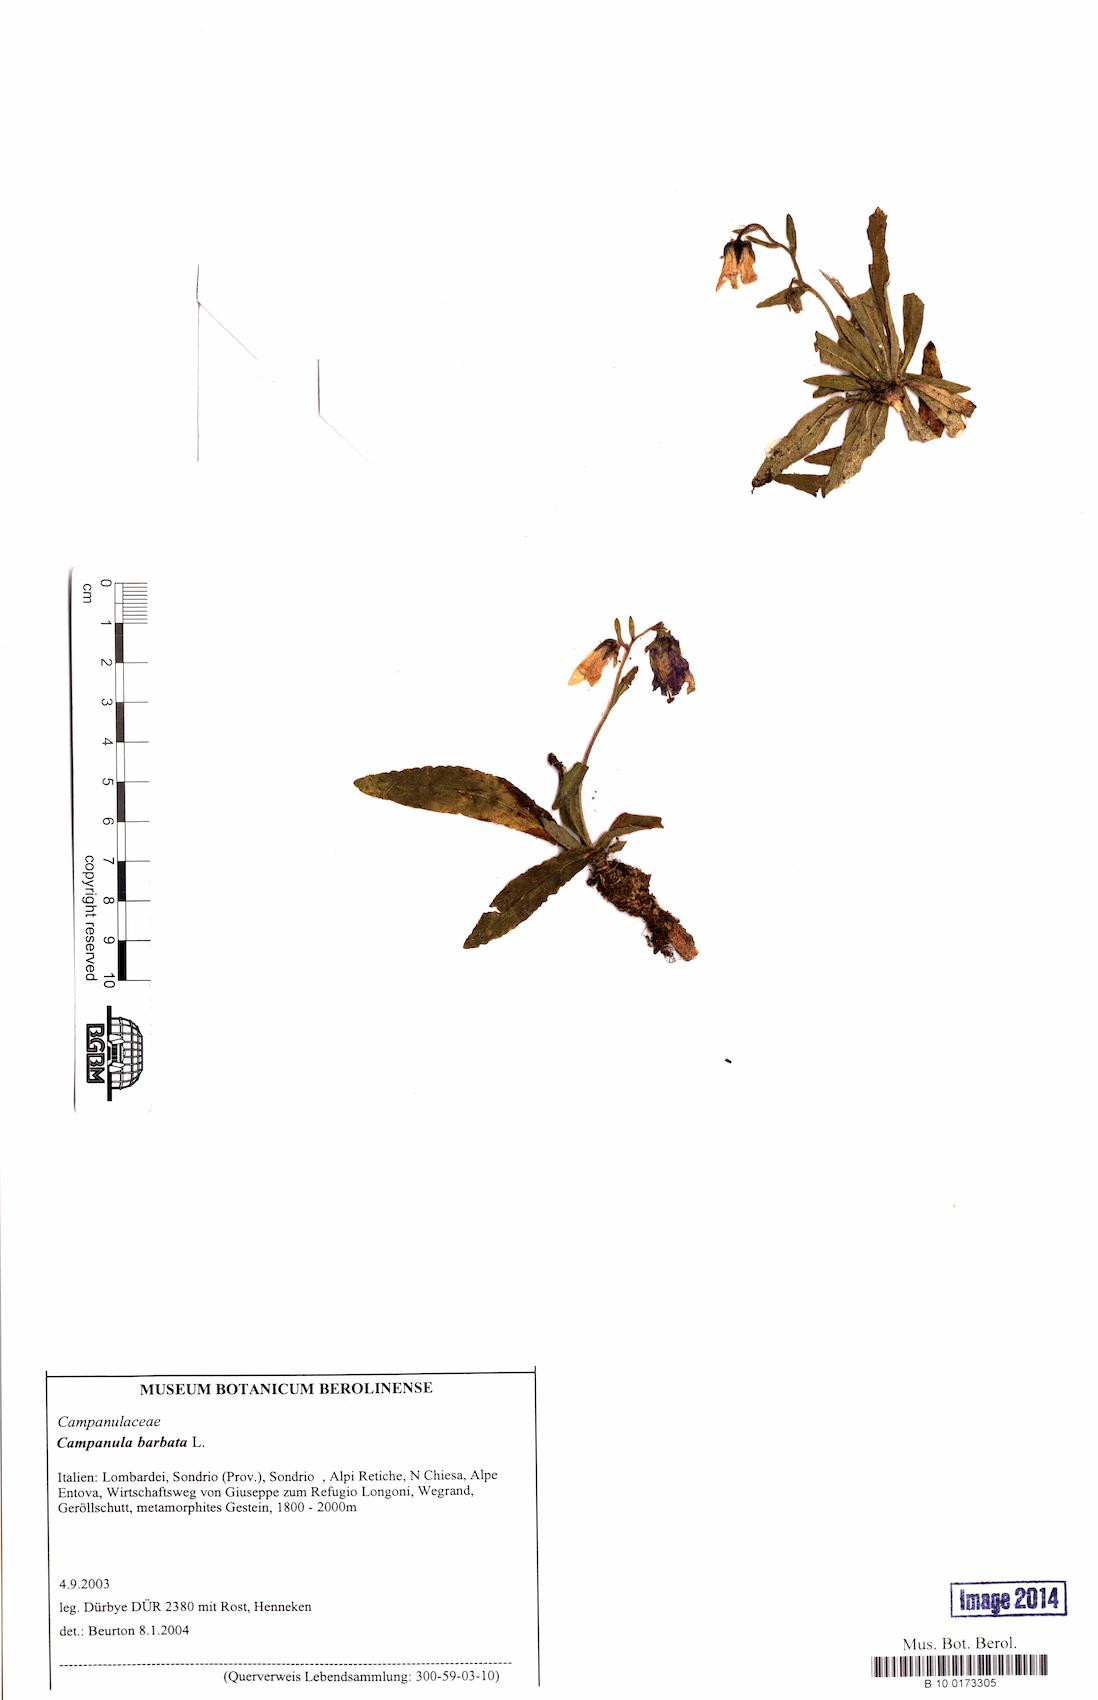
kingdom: Plantae
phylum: Tracheophyta
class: Magnoliopsida
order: Asterales
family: Campanulaceae
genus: Campanula
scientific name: Campanula barbata
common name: Bearded bellflower
